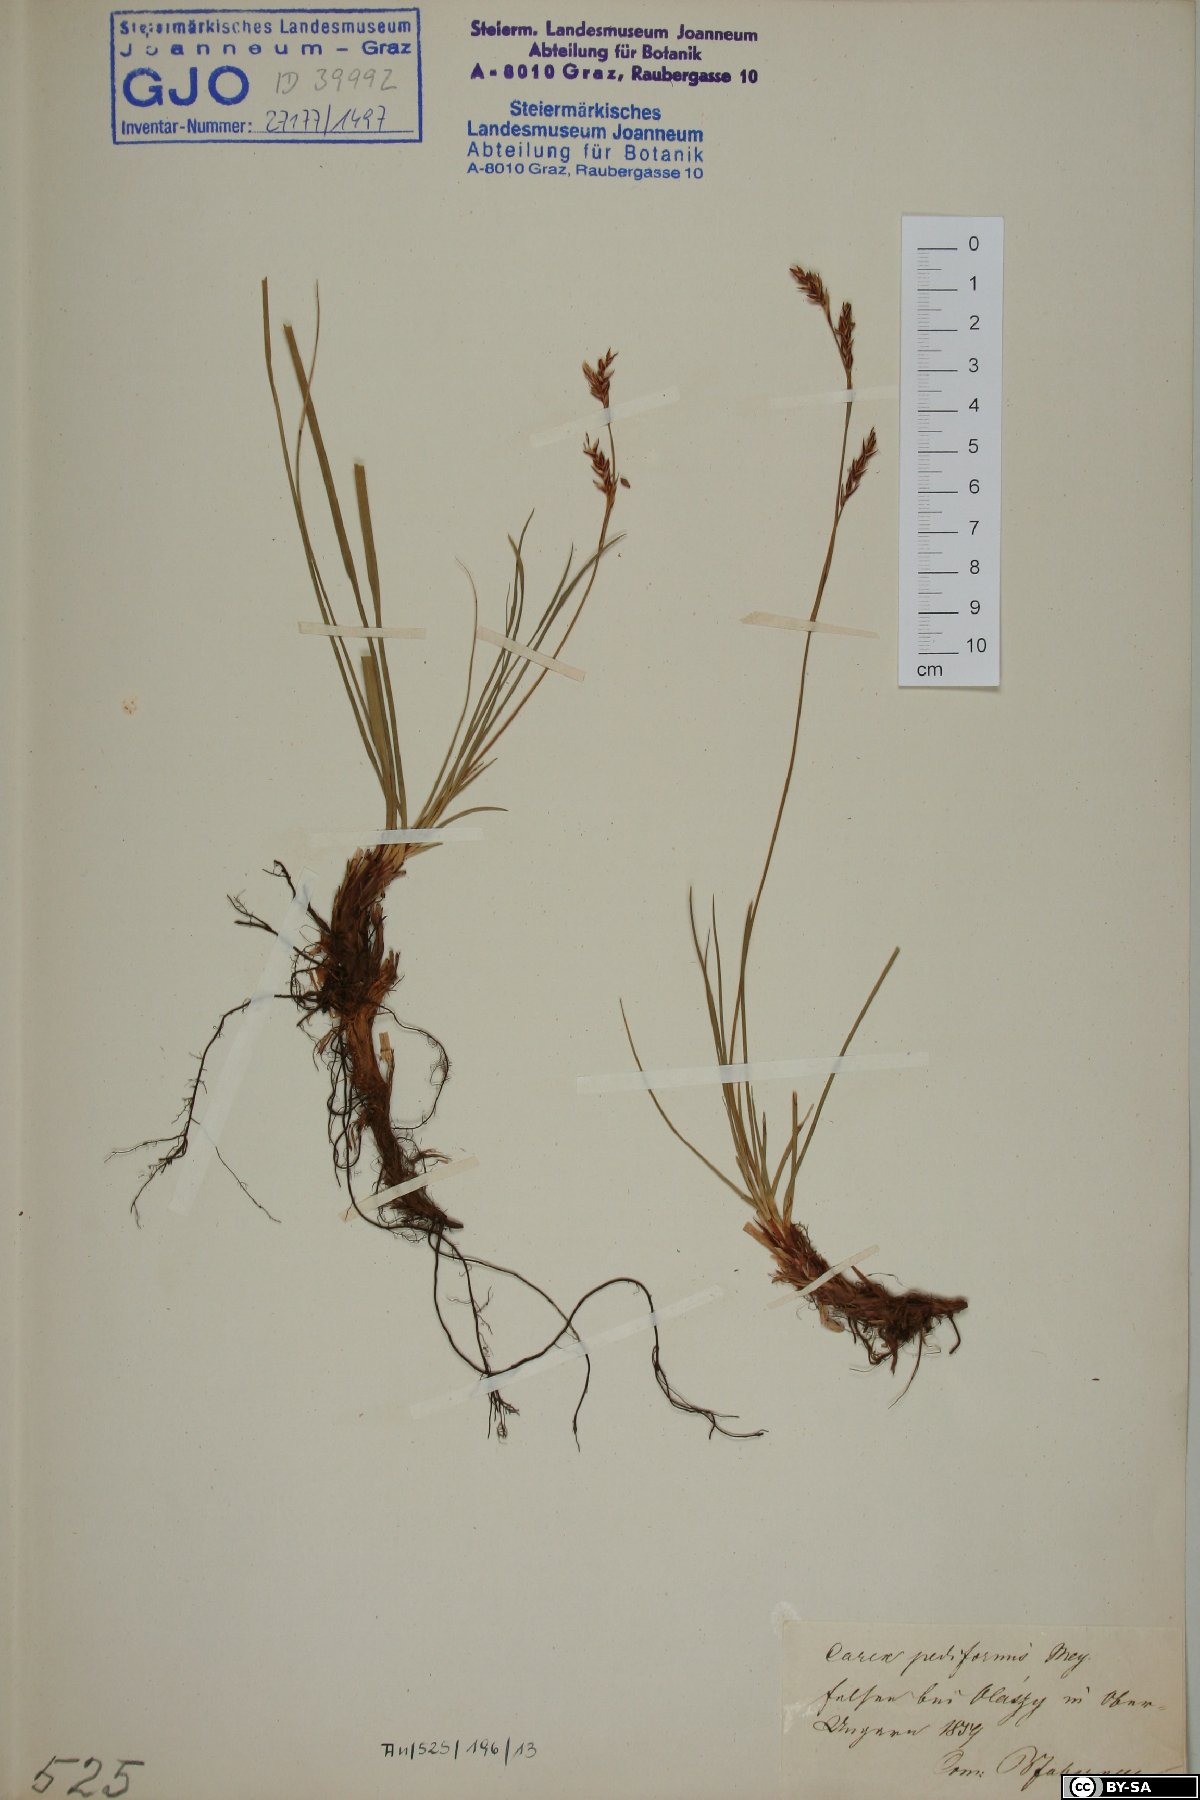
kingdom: Plantae
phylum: Tracheophyta
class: Liliopsida
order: Poales
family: Cyperaceae
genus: Carex
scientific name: Carex pediformis
